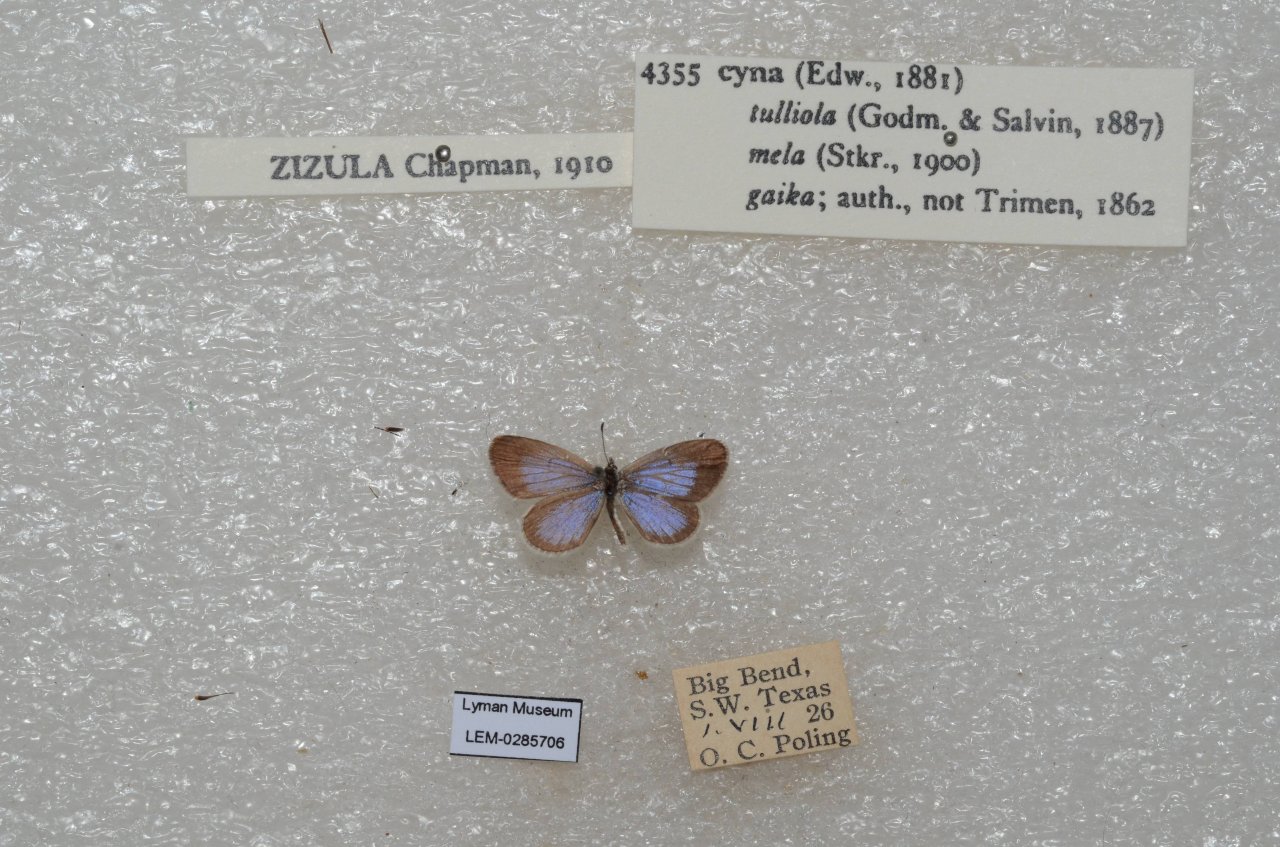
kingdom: Animalia
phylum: Arthropoda
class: Insecta
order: Lepidoptera
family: Lycaenidae
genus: Lycaena
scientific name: Lycaena cyna
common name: Cyna Blue
